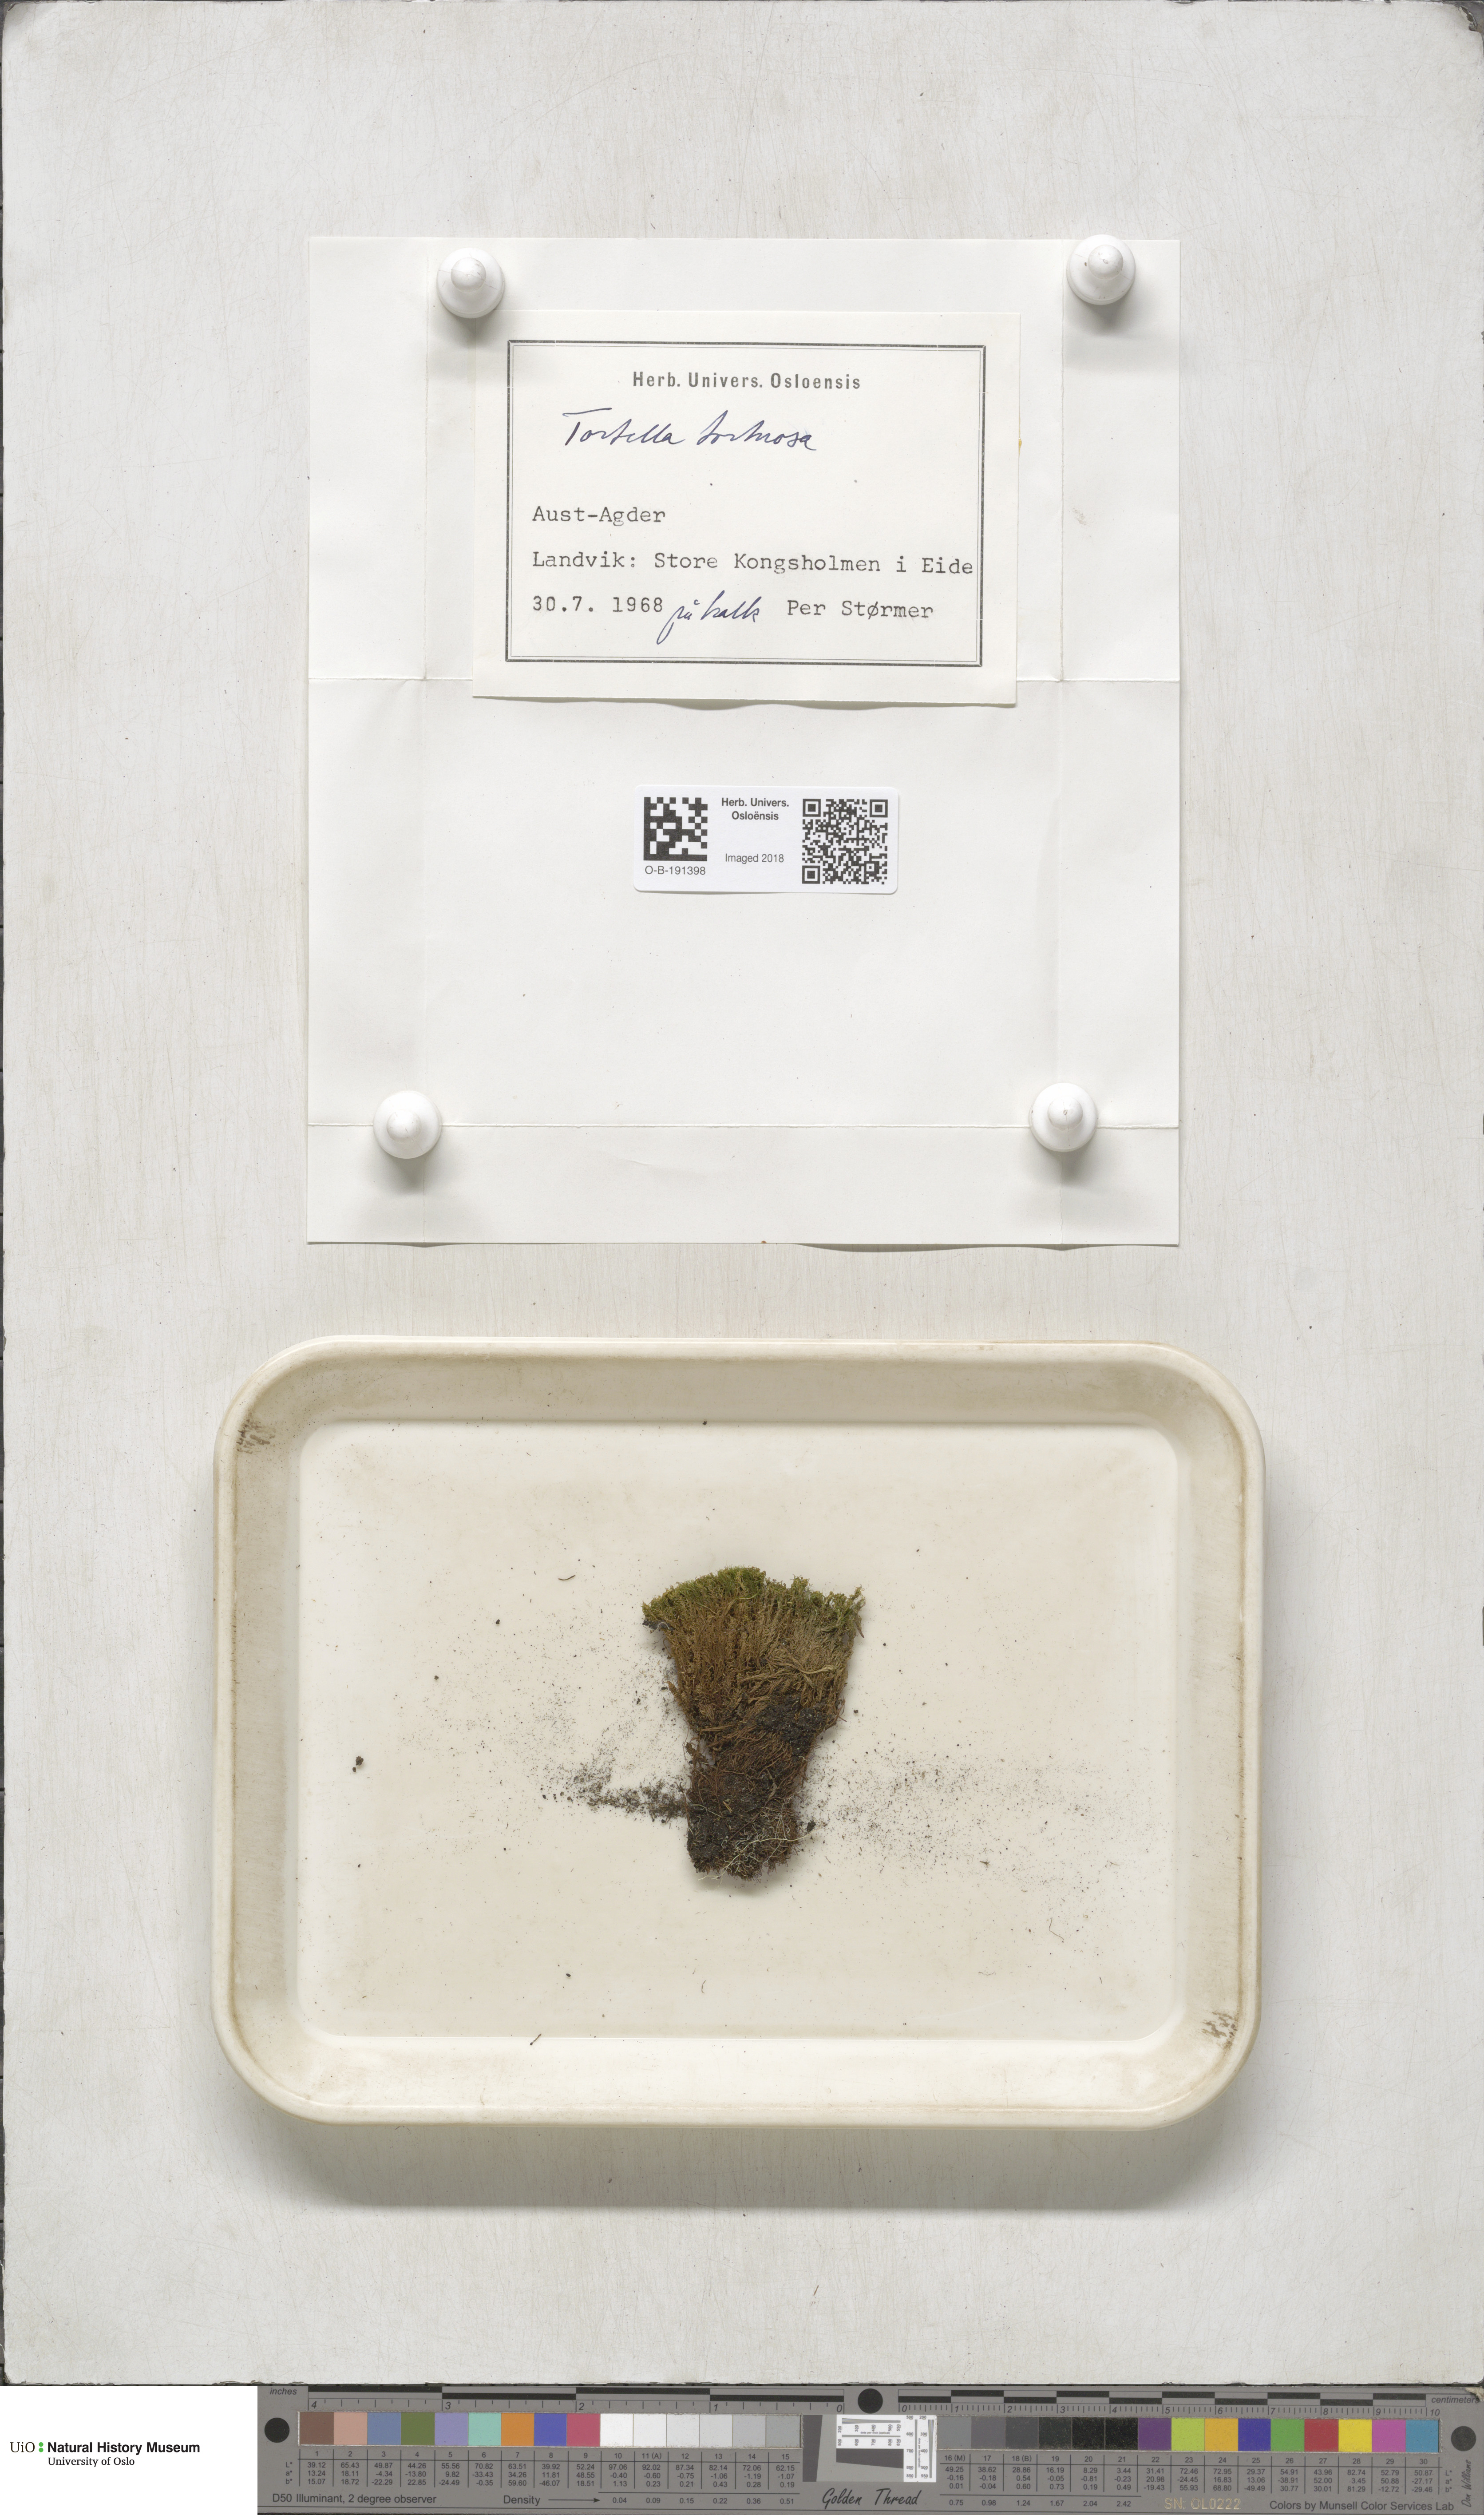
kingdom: Plantae
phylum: Bryophyta
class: Bryopsida
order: Pottiales
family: Pottiaceae
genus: Tortella
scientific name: Tortella tortuosa
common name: Frizzled crisp moss
